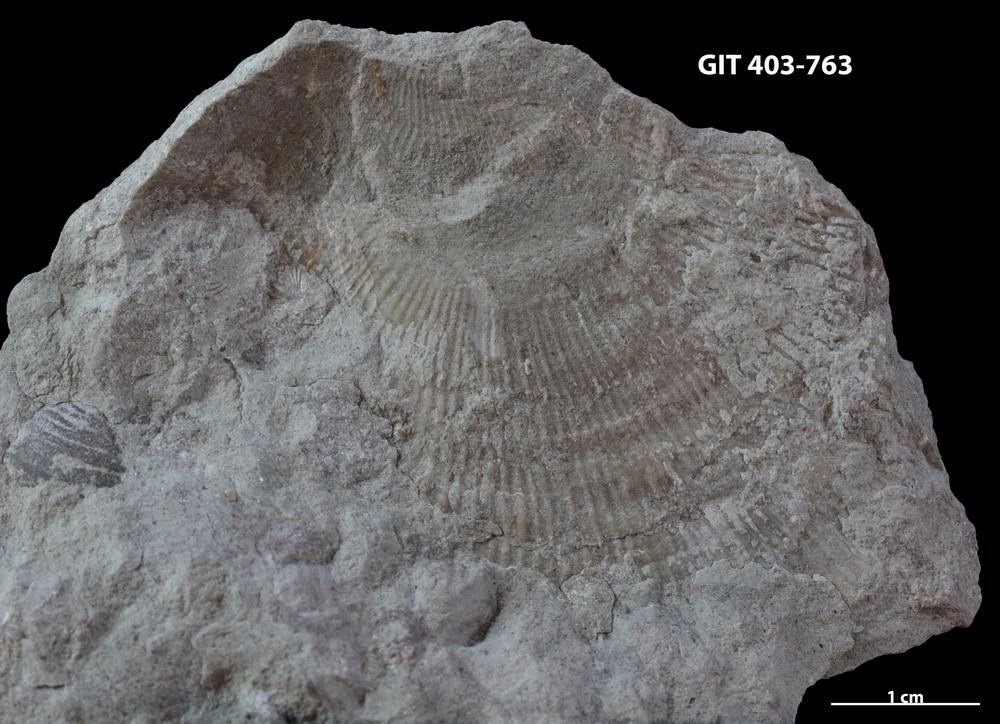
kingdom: Animalia
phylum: Brachiopoda
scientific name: Brachiopoda
